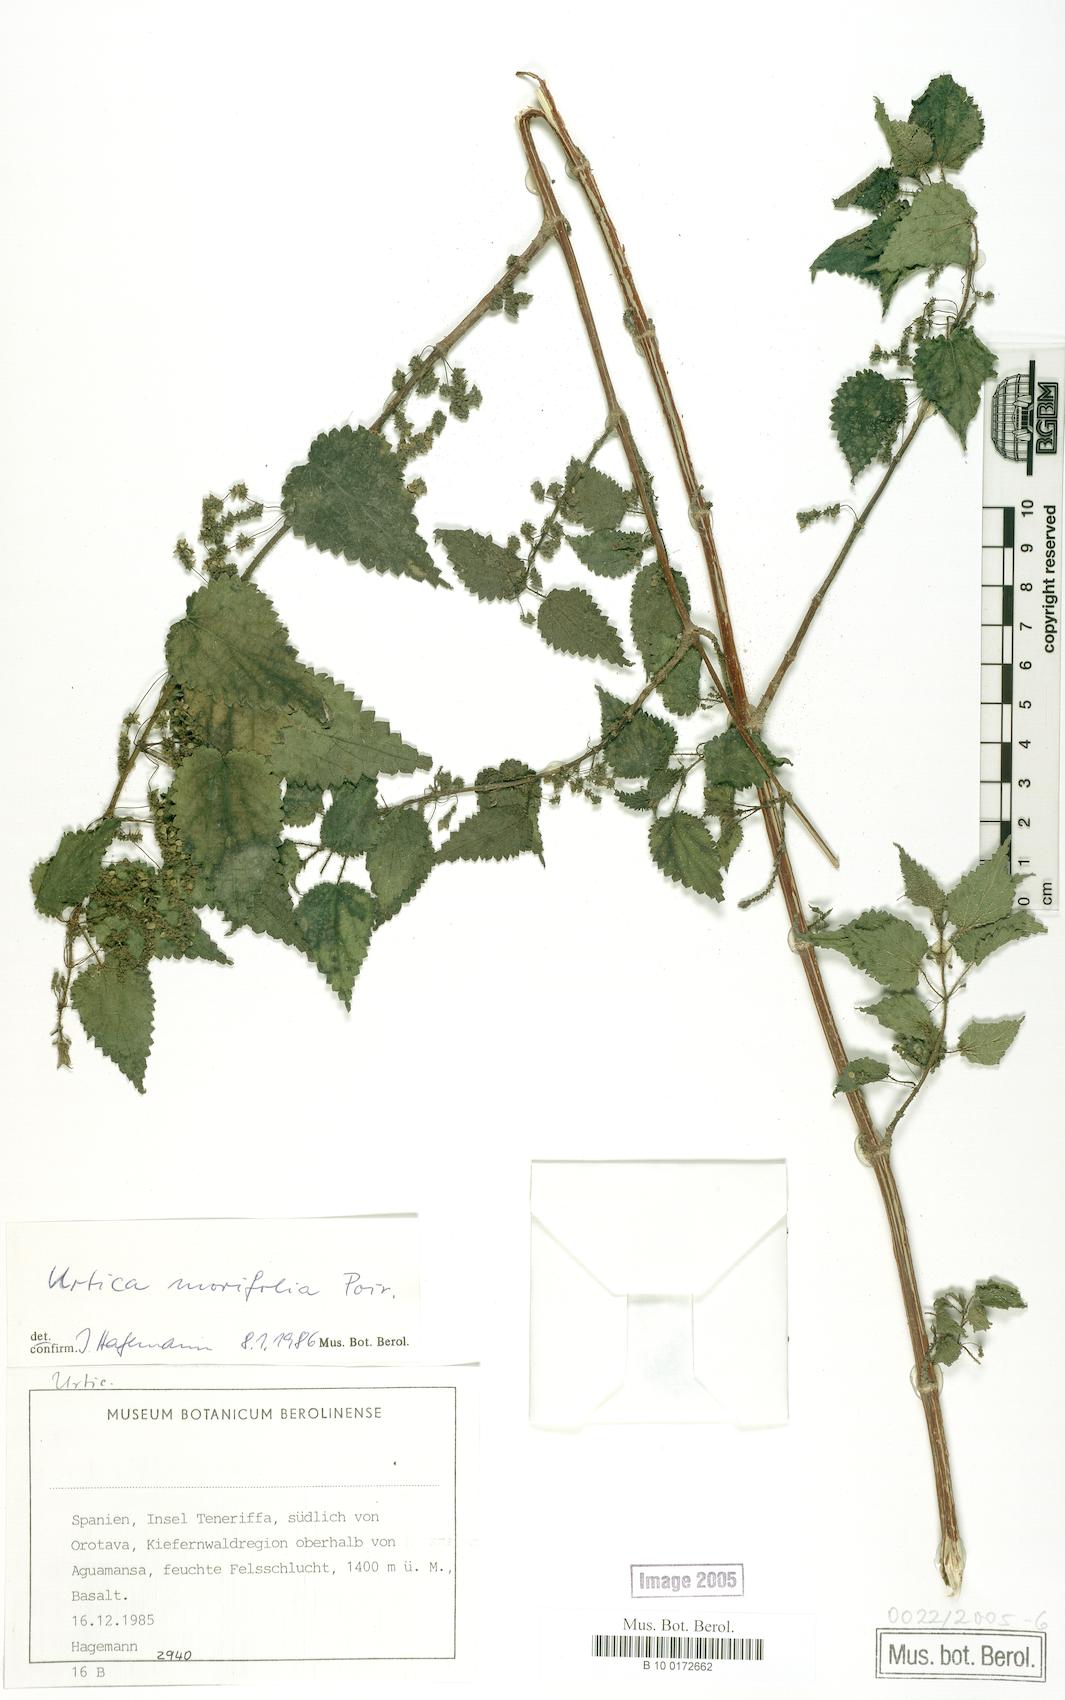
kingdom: Plantae
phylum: Tracheophyta
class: Magnoliopsida
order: Rosales
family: Urticaceae
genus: Urtica
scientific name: Urtica morifolia
